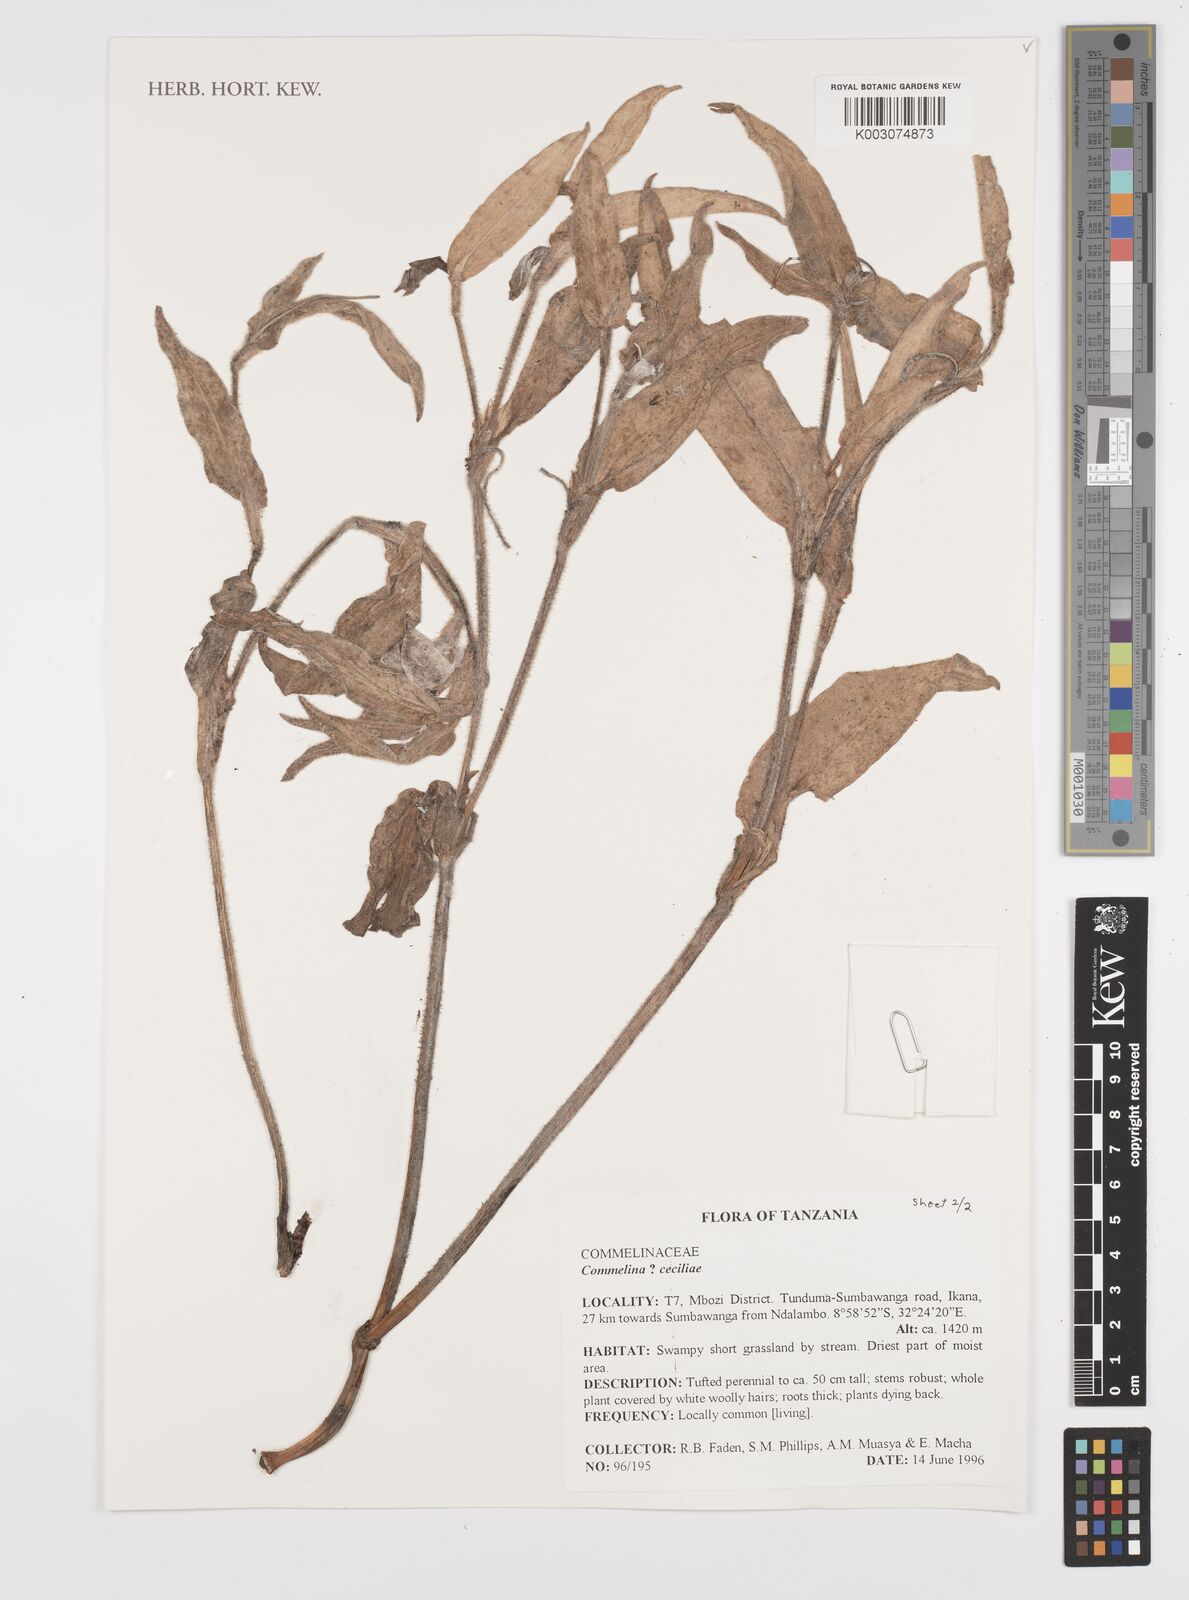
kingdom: Plantae
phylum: Tracheophyta
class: Liliopsida
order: Commelinales
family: Commelinaceae
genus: Commelina
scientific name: Commelina cecilae
